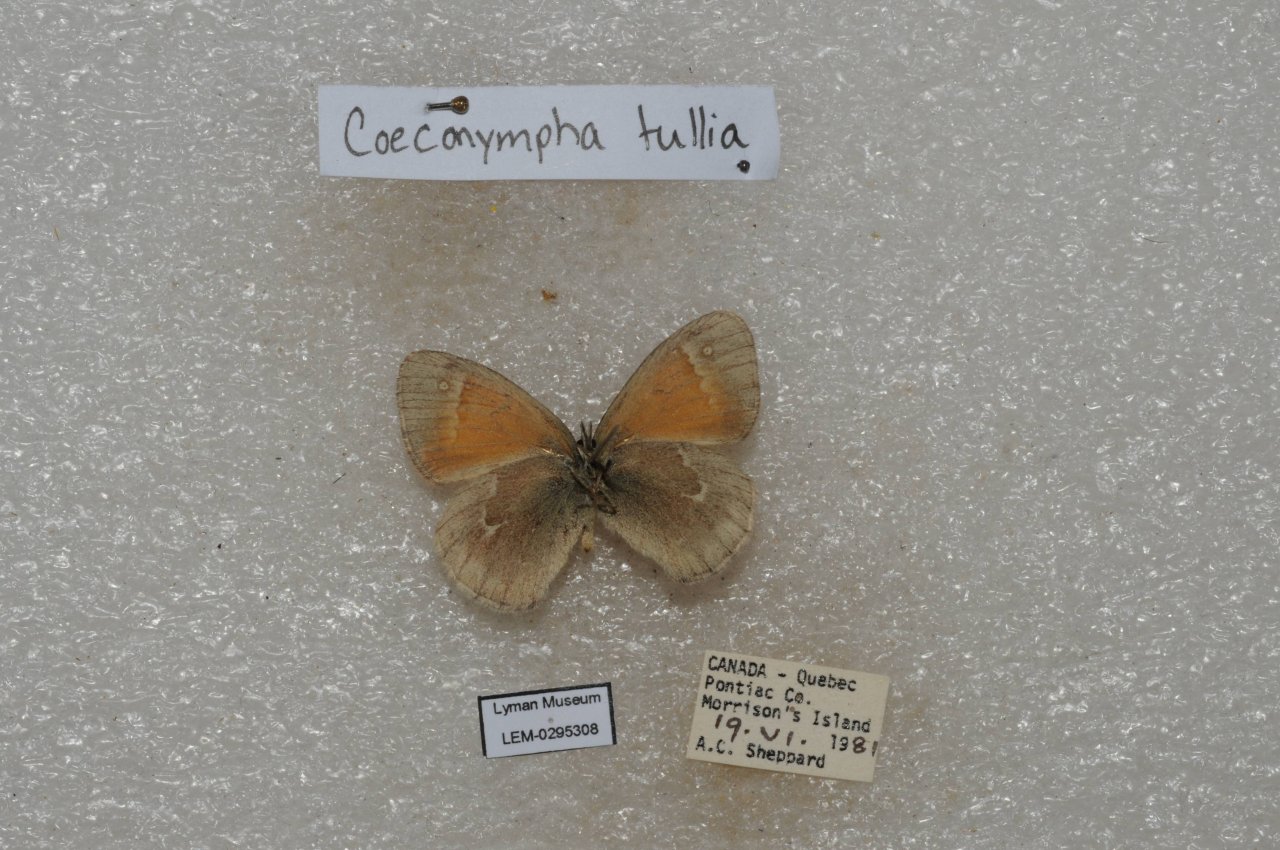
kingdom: Animalia
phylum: Arthropoda
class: Insecta
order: Lepidoptera
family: Nymphalidae
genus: Coenonympha
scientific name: Coenonympha tullia
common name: Large Heath
